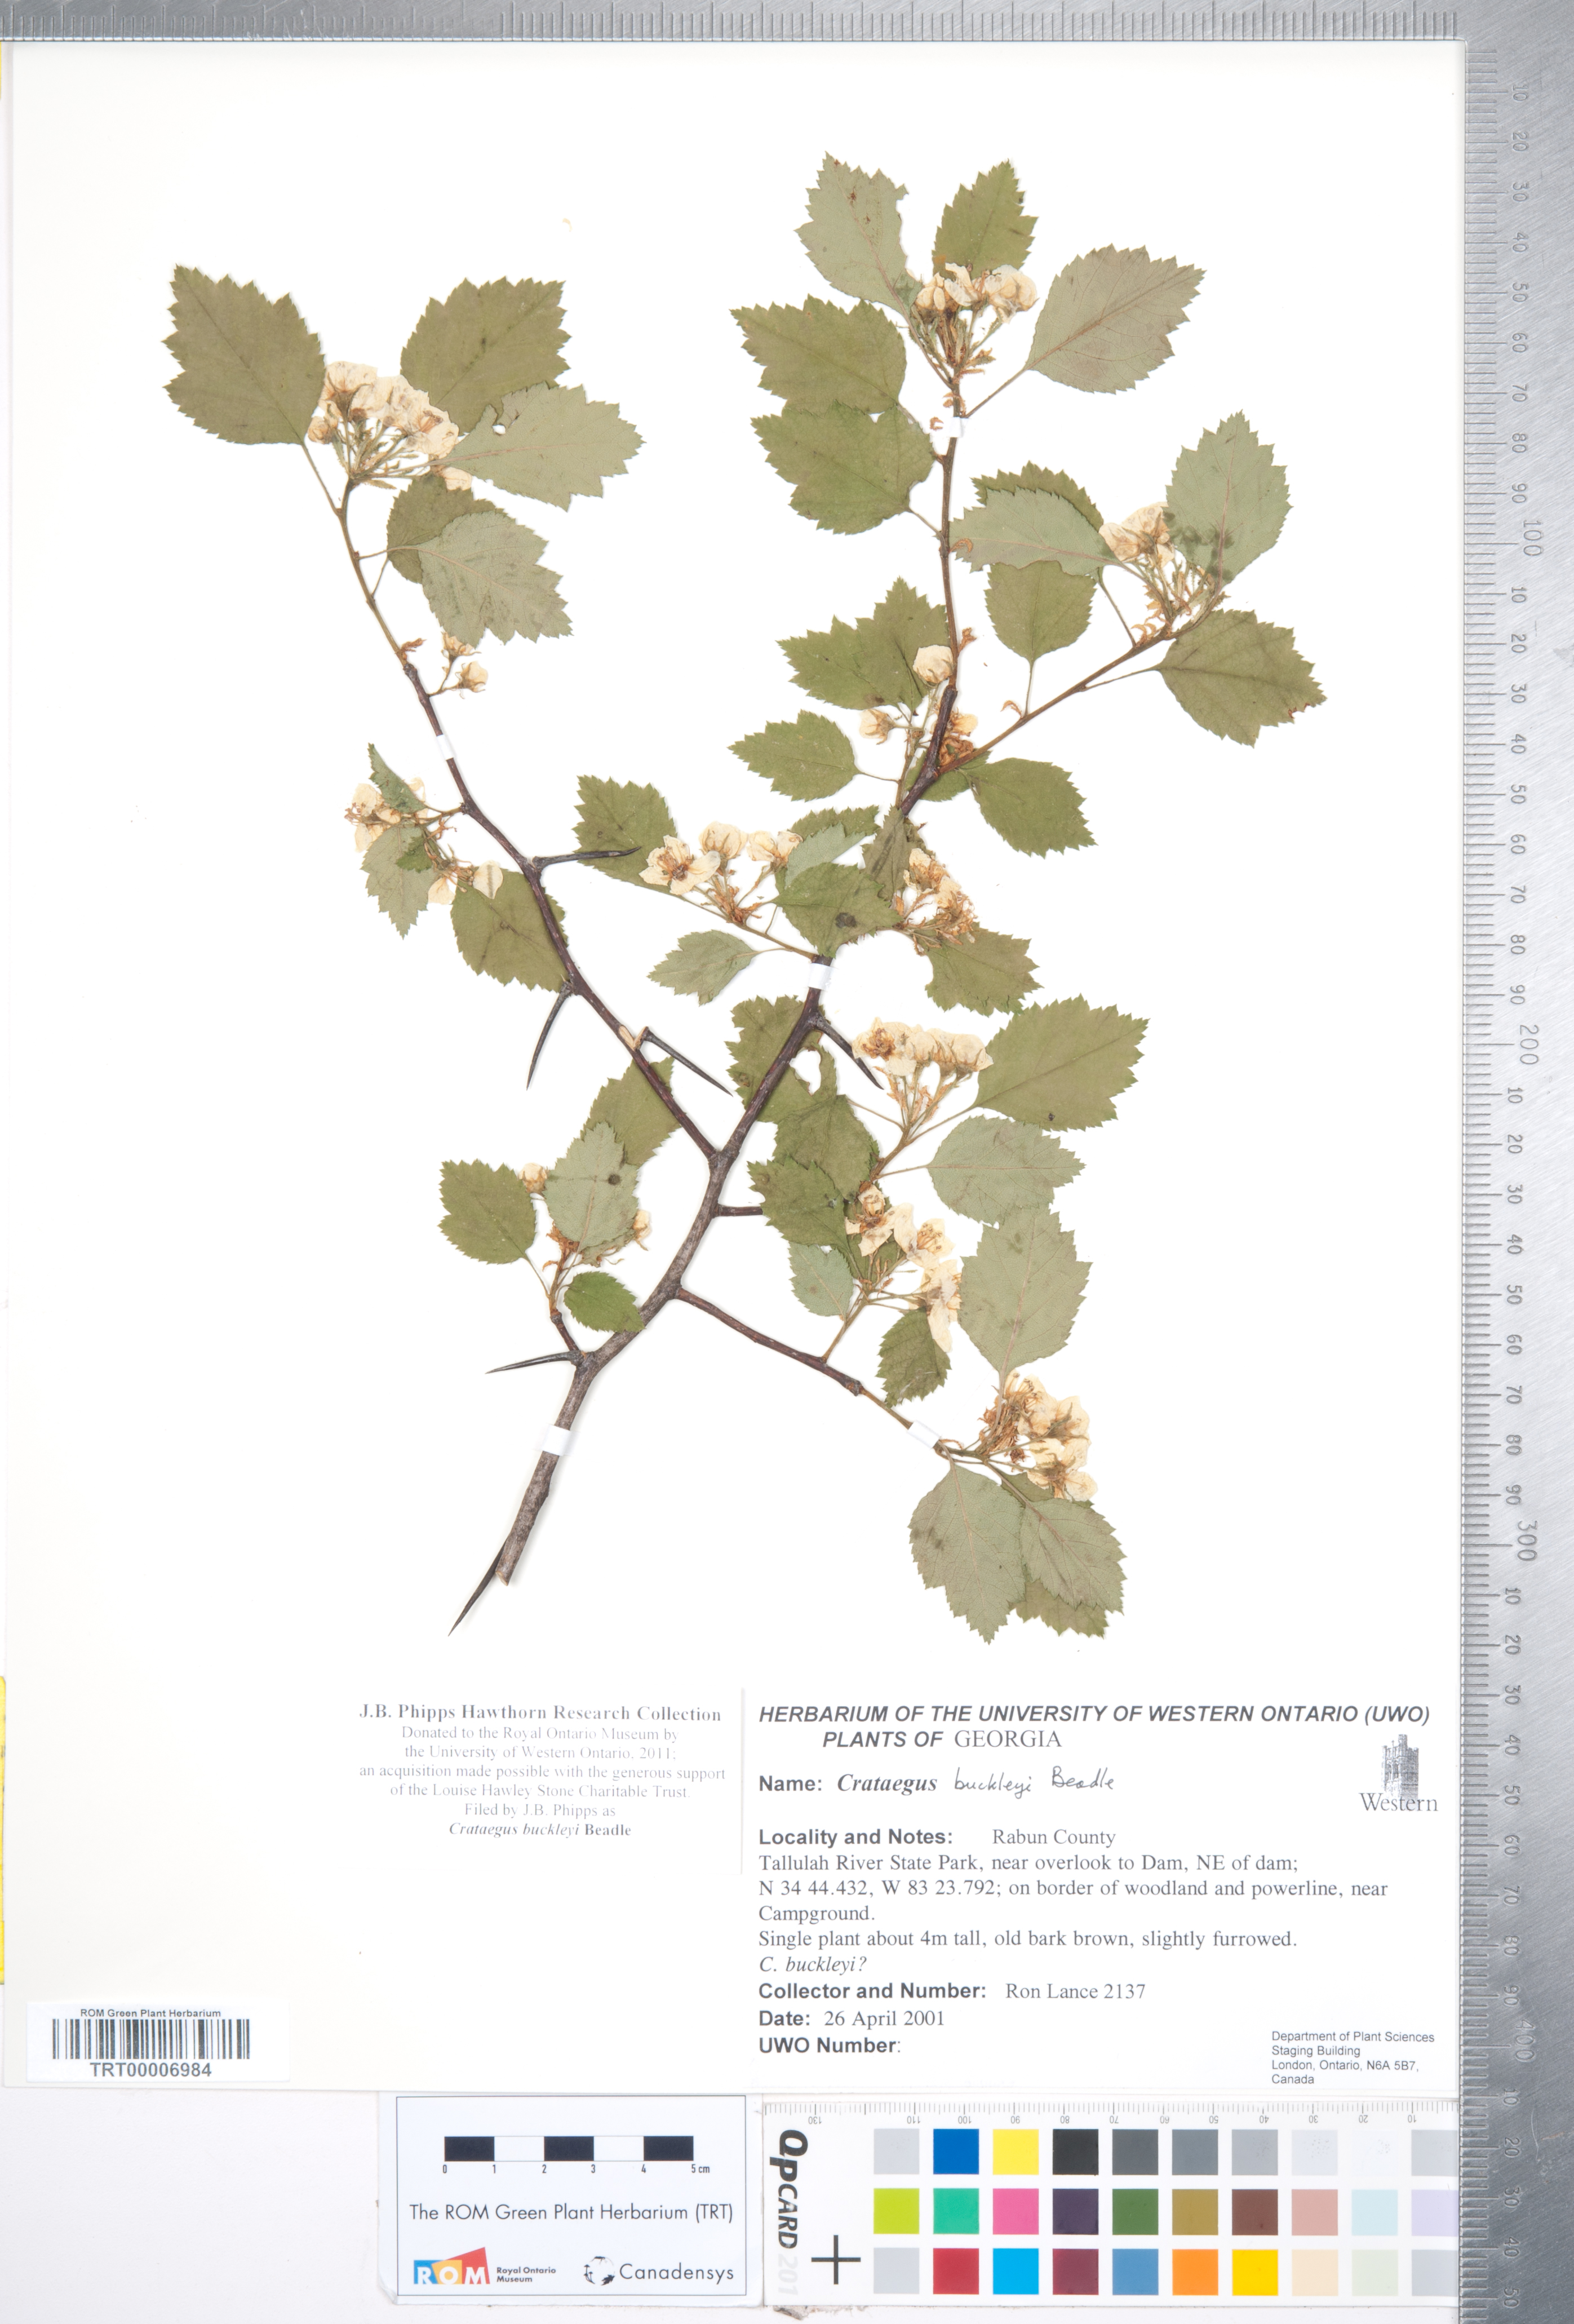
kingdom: Plantae
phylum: Tracheophyta
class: Magnoliopsida
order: Rosales
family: Rosaceae
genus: Crataegus
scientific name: Crataegus intricata
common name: Biltmore hawthorn
